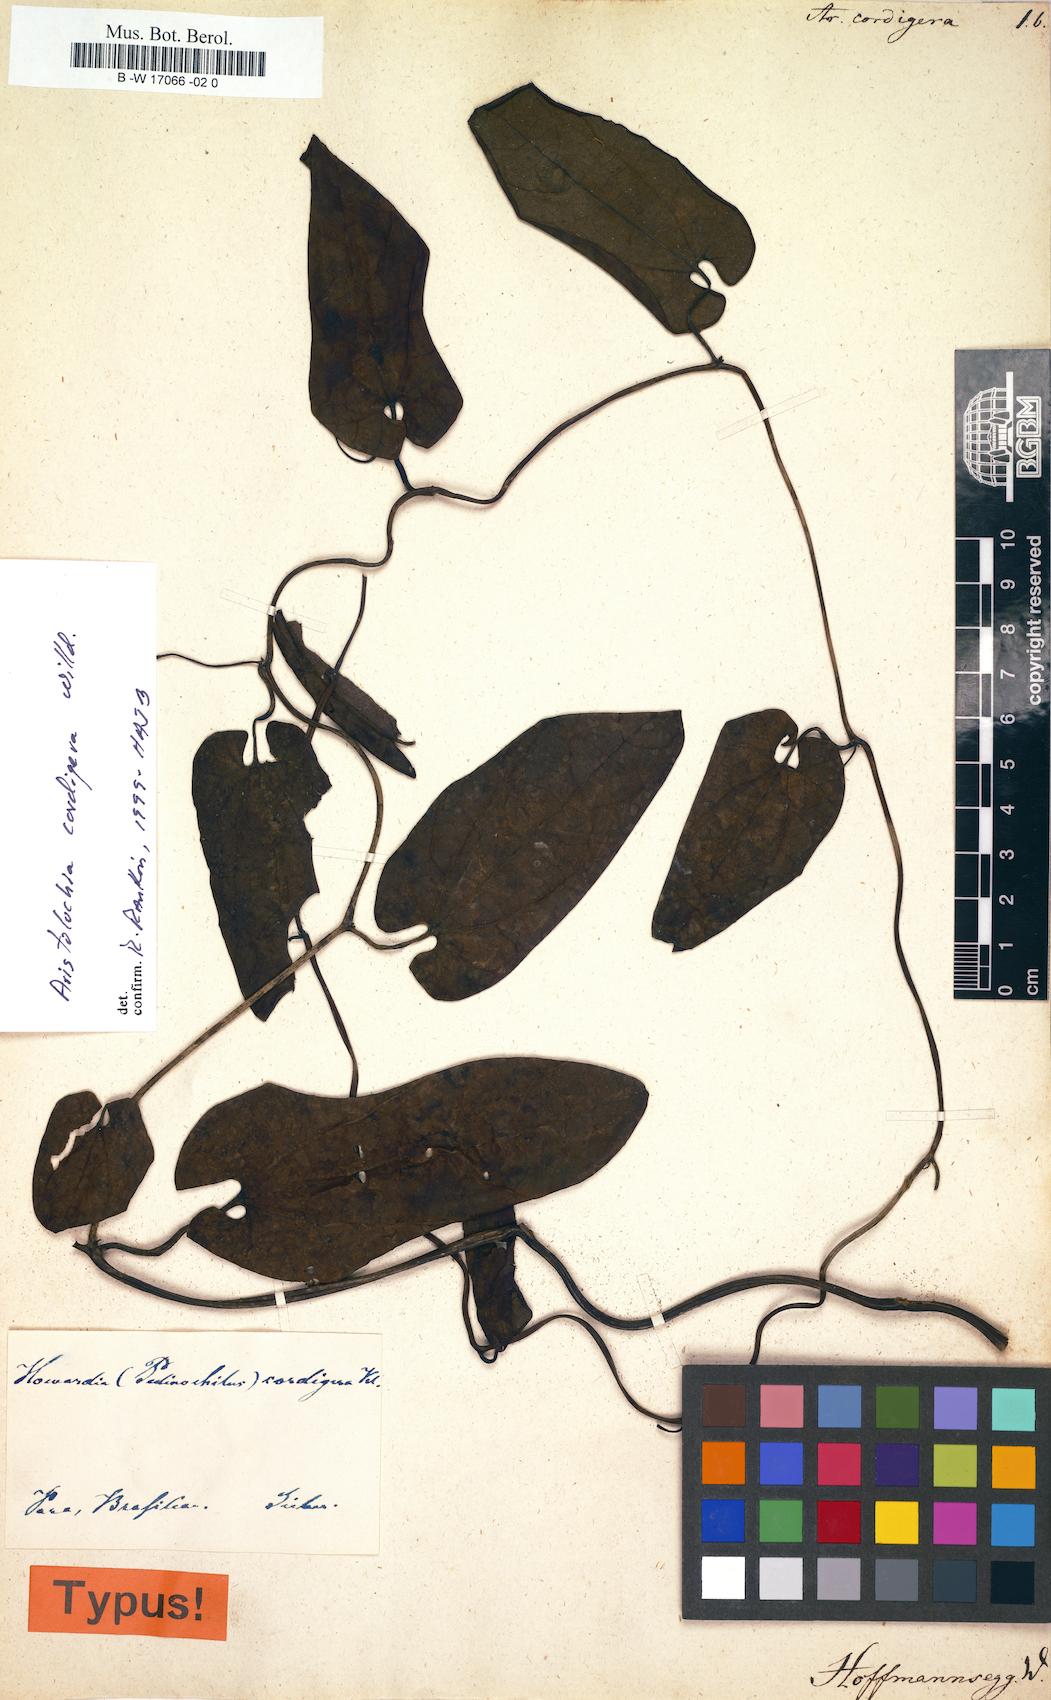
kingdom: Plantae
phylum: Tracheophyta
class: Magnoliopsida
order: Piperales
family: Aristolochiaceae
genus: Aristolochia
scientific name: Aristolochia cordigera
